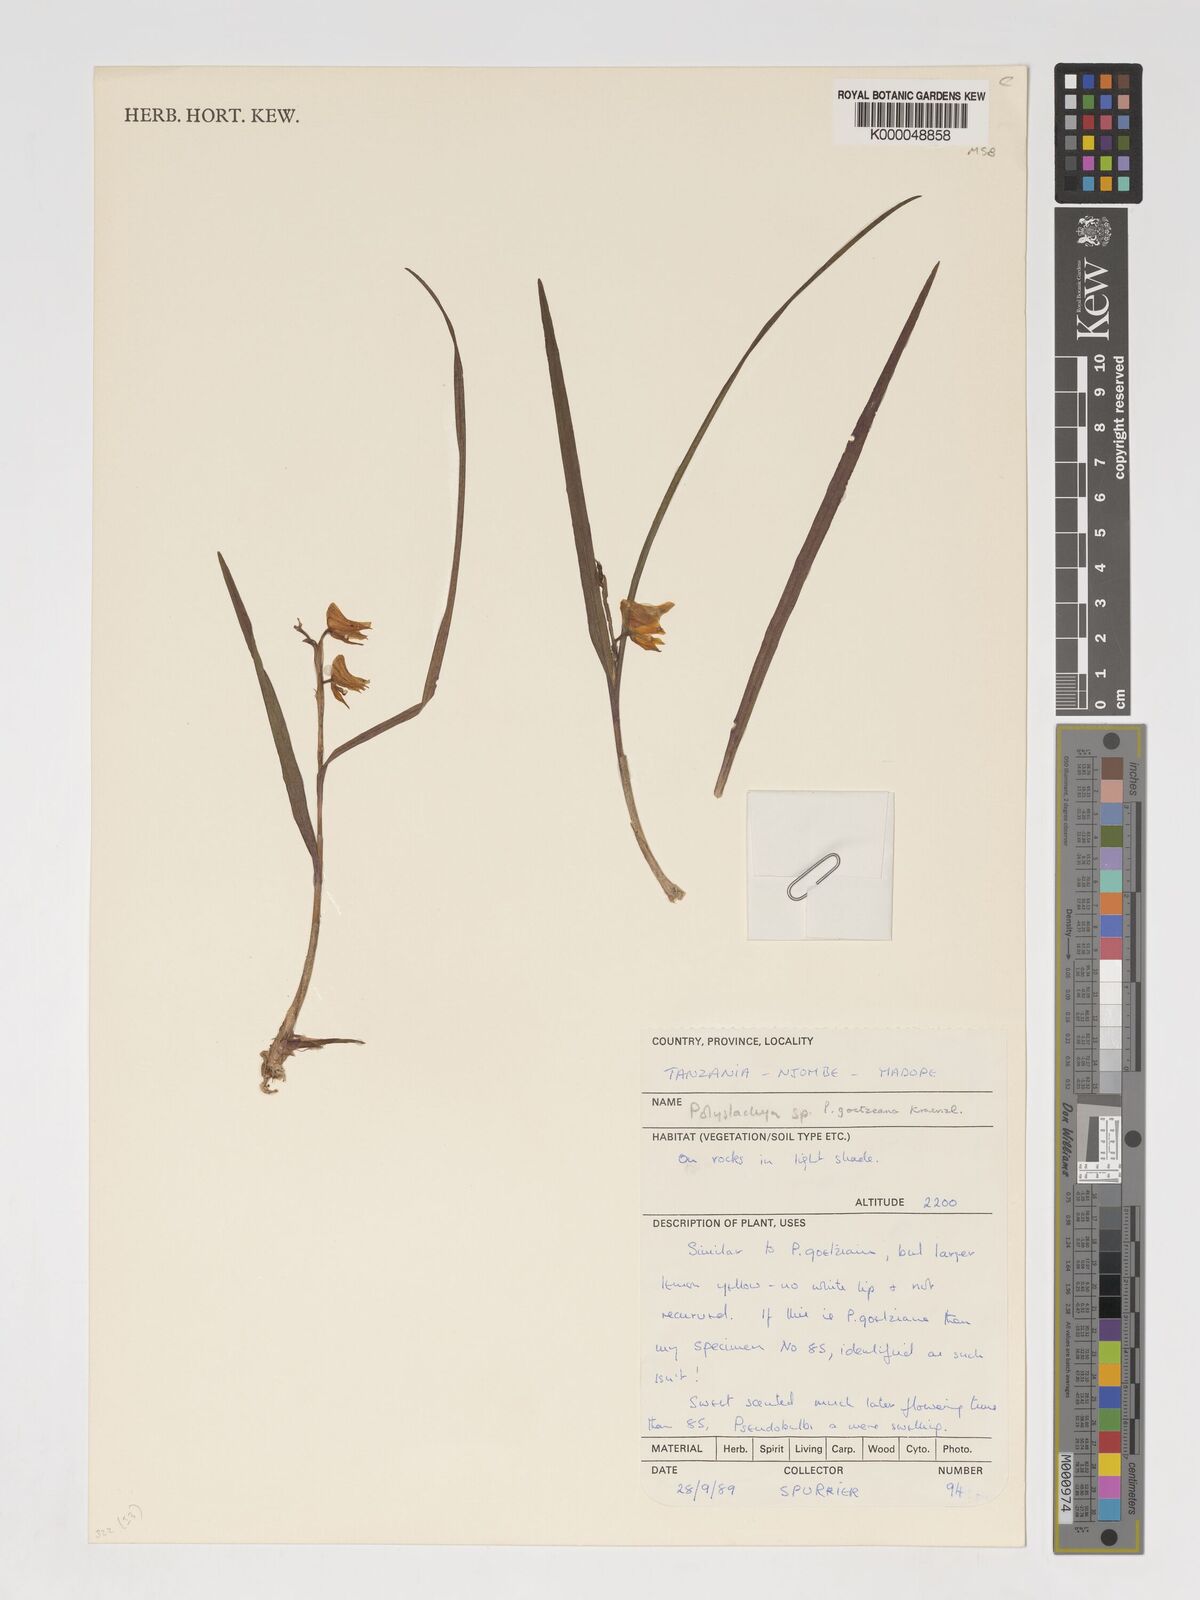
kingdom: Plantae
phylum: Tracheophyta
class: Liliopsida
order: Asparagales
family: Orchidaceae
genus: Polystachya
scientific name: Polystachya goetzeana
